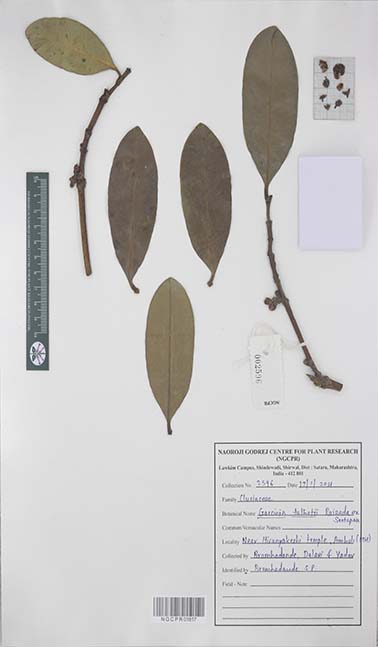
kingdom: Plantae
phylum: Tracheophyta
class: Magnoliopsida
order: Malpighiales
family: Clusiaceae
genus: Garcinia
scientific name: Garcinia talbotii
